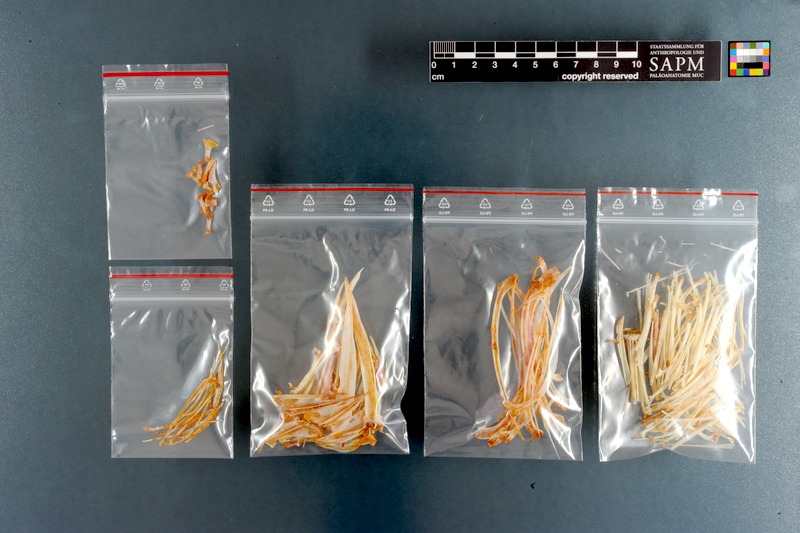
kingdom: Animalia
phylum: Chordata
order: Perciformes
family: Sparidae
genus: Pachymetopon
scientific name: Pachymetopon aeneum
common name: Blue hottentot
